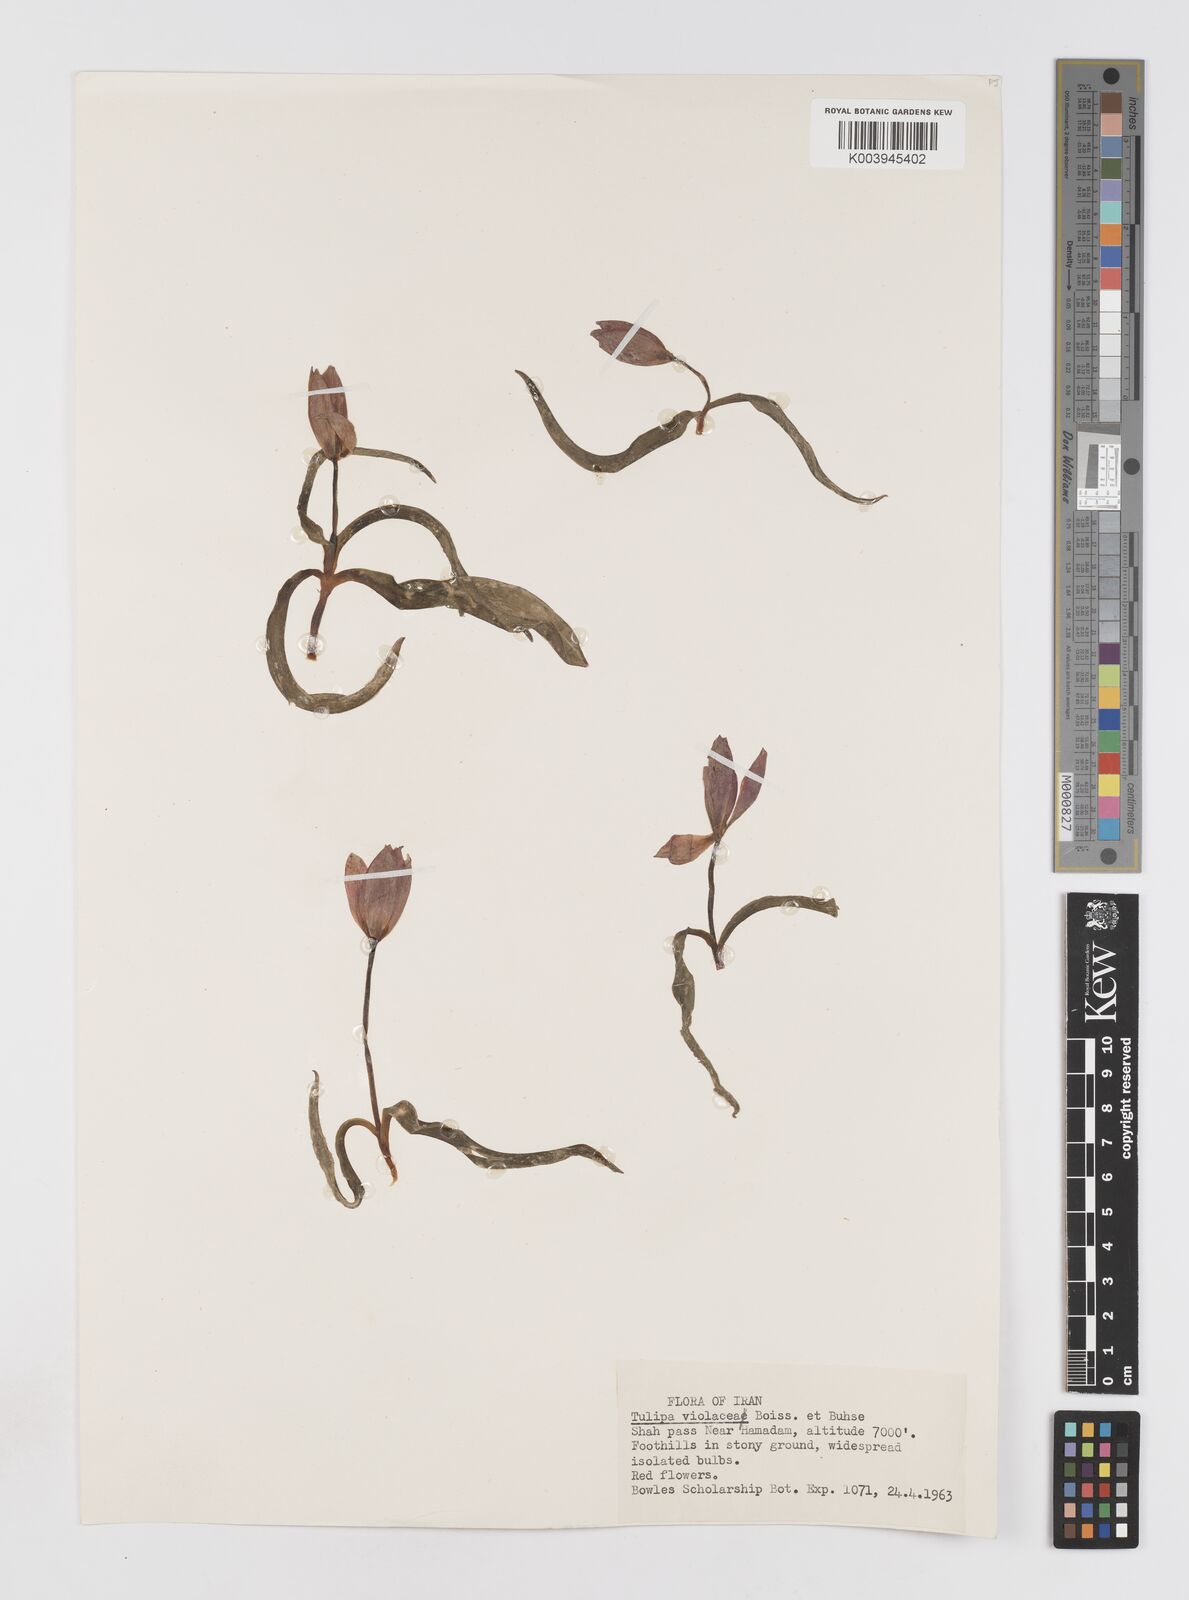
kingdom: Plantae
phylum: Tracheophyta
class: Liliopsida
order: Liliales
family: Liliaceae
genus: Tulipa
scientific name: Tulipa humilis
